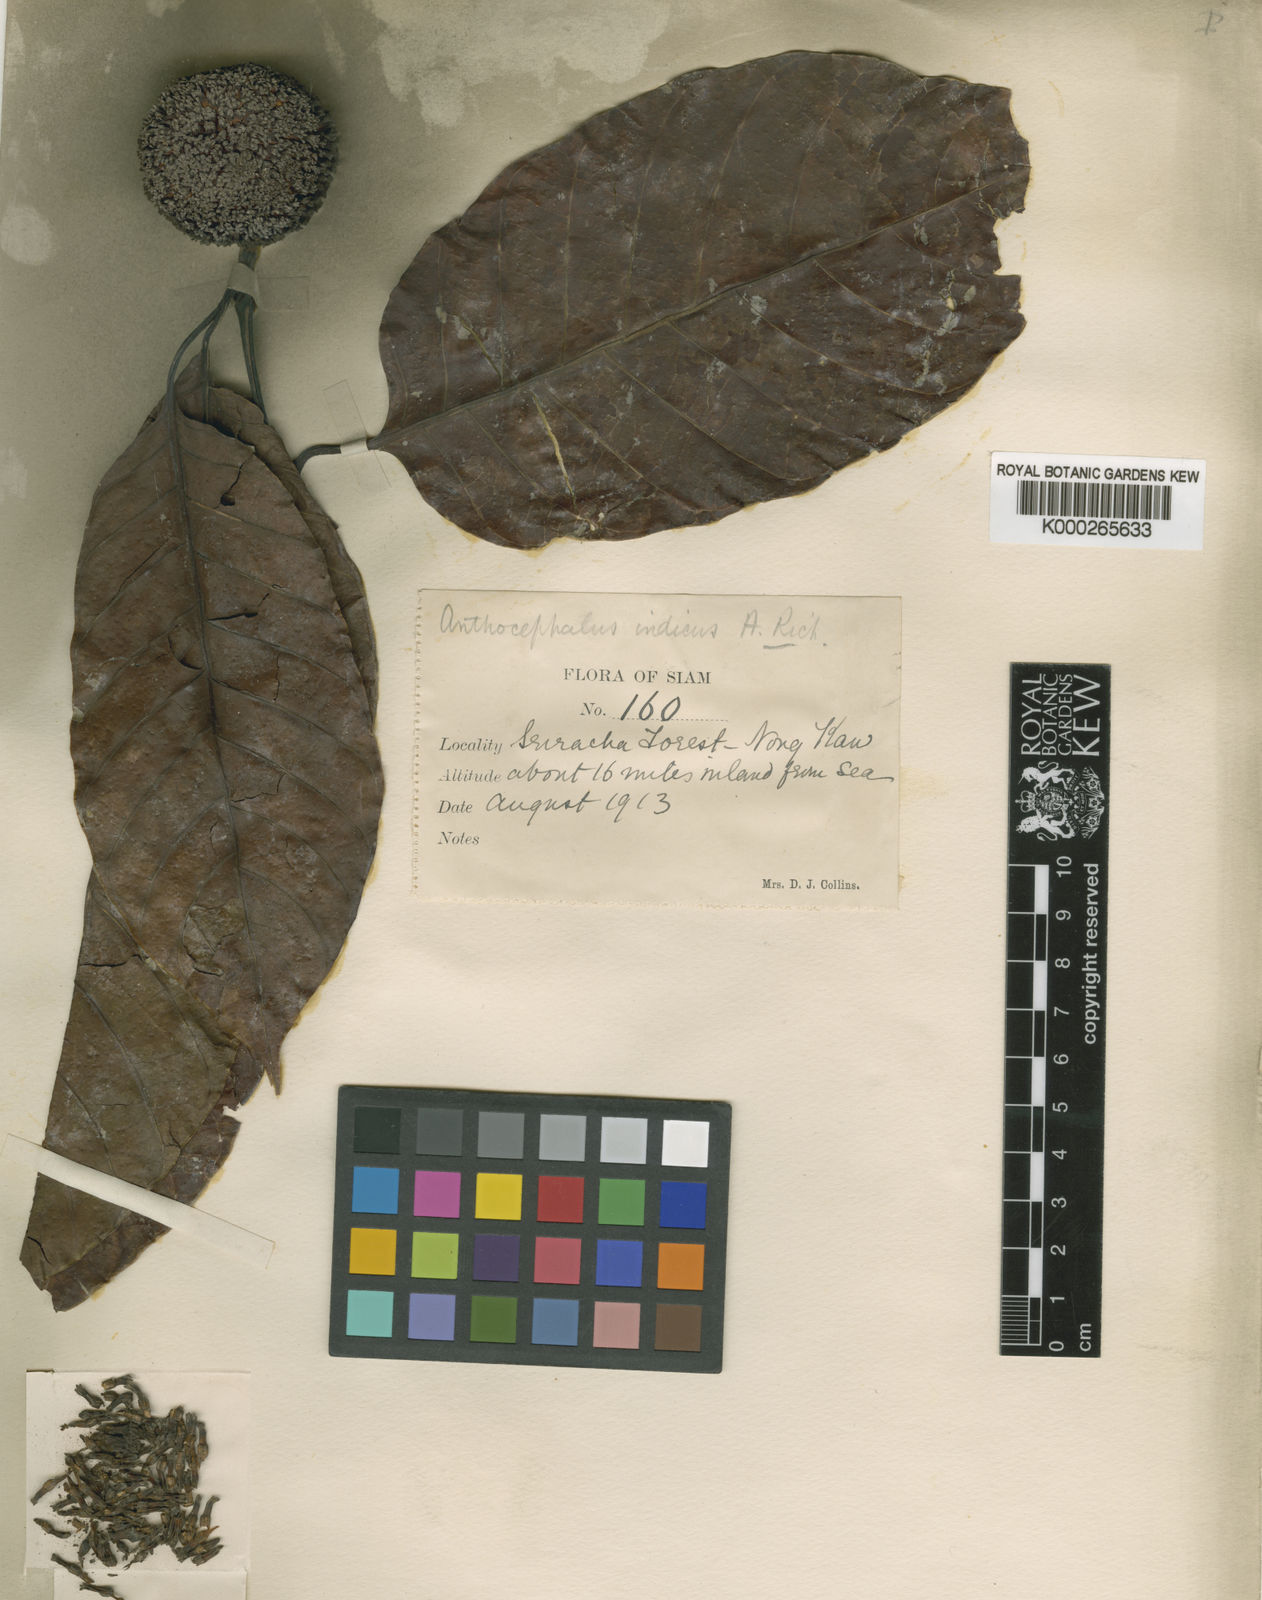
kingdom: Plantae
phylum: Tracheophyta
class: Magnoliopsida
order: Gentianales
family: Rubiaceae
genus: Neolamarckia
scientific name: Neolamarckia cadamba
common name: Leichhardt-pine
